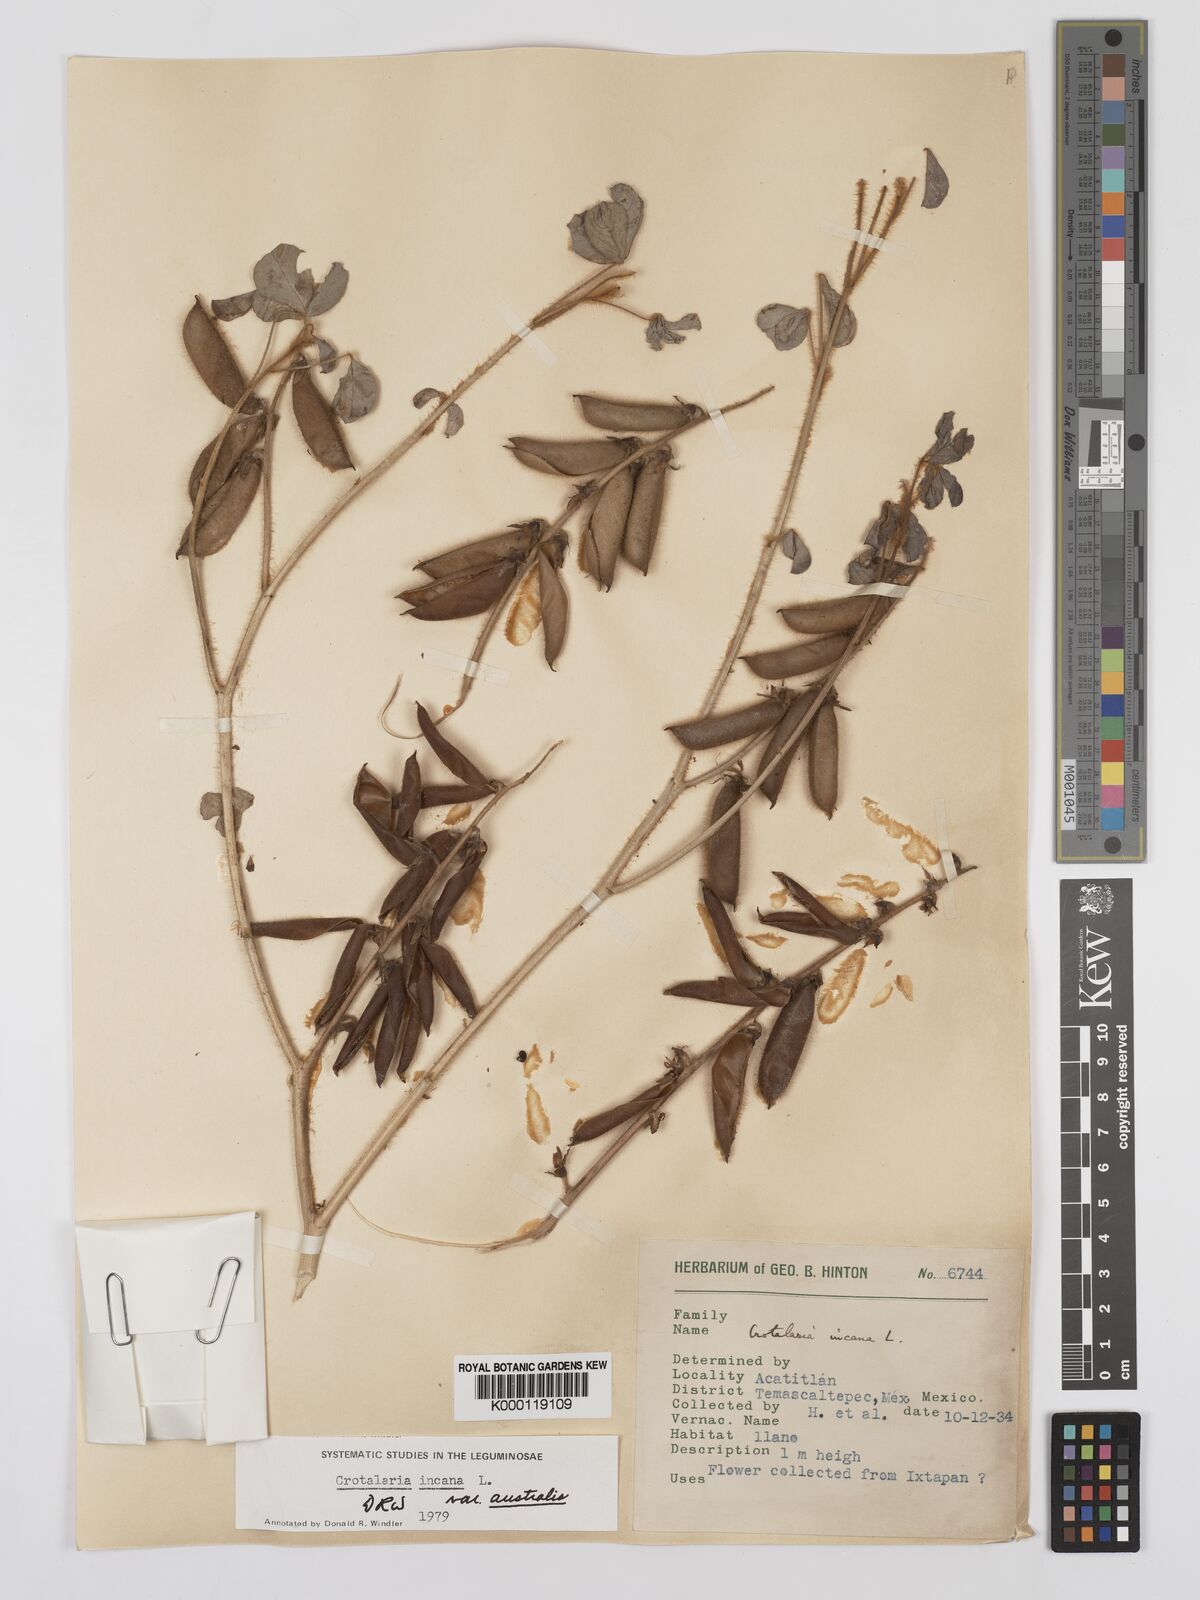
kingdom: Plantae
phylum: Tracheophyta
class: Magnoliopsida
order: Fabales
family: Fabaceae
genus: Crotalaria
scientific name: Crotalaria chaco-serranensis
